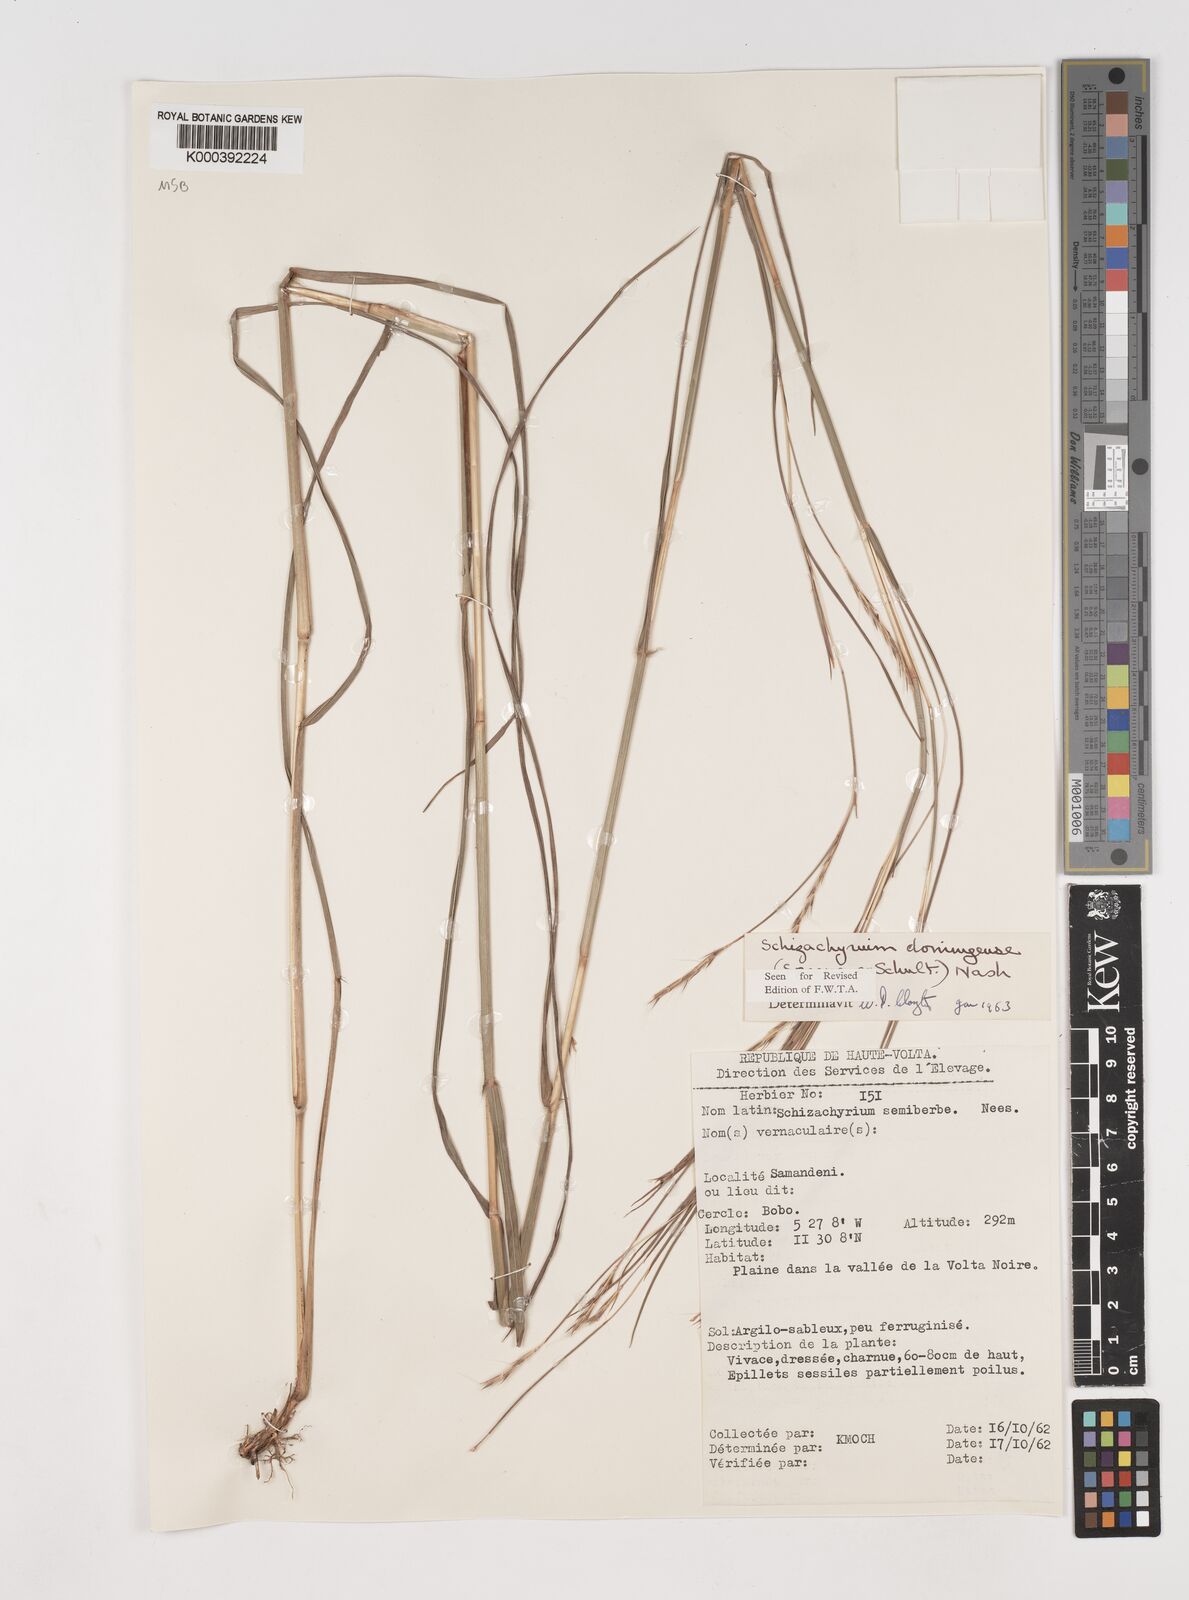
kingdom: Plantae
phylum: Tracheophyta
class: Liliopsida
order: Poales
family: Poaceae
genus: Schizachyrium
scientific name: Schizachyrium sanguineum
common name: Crimson bluestem
